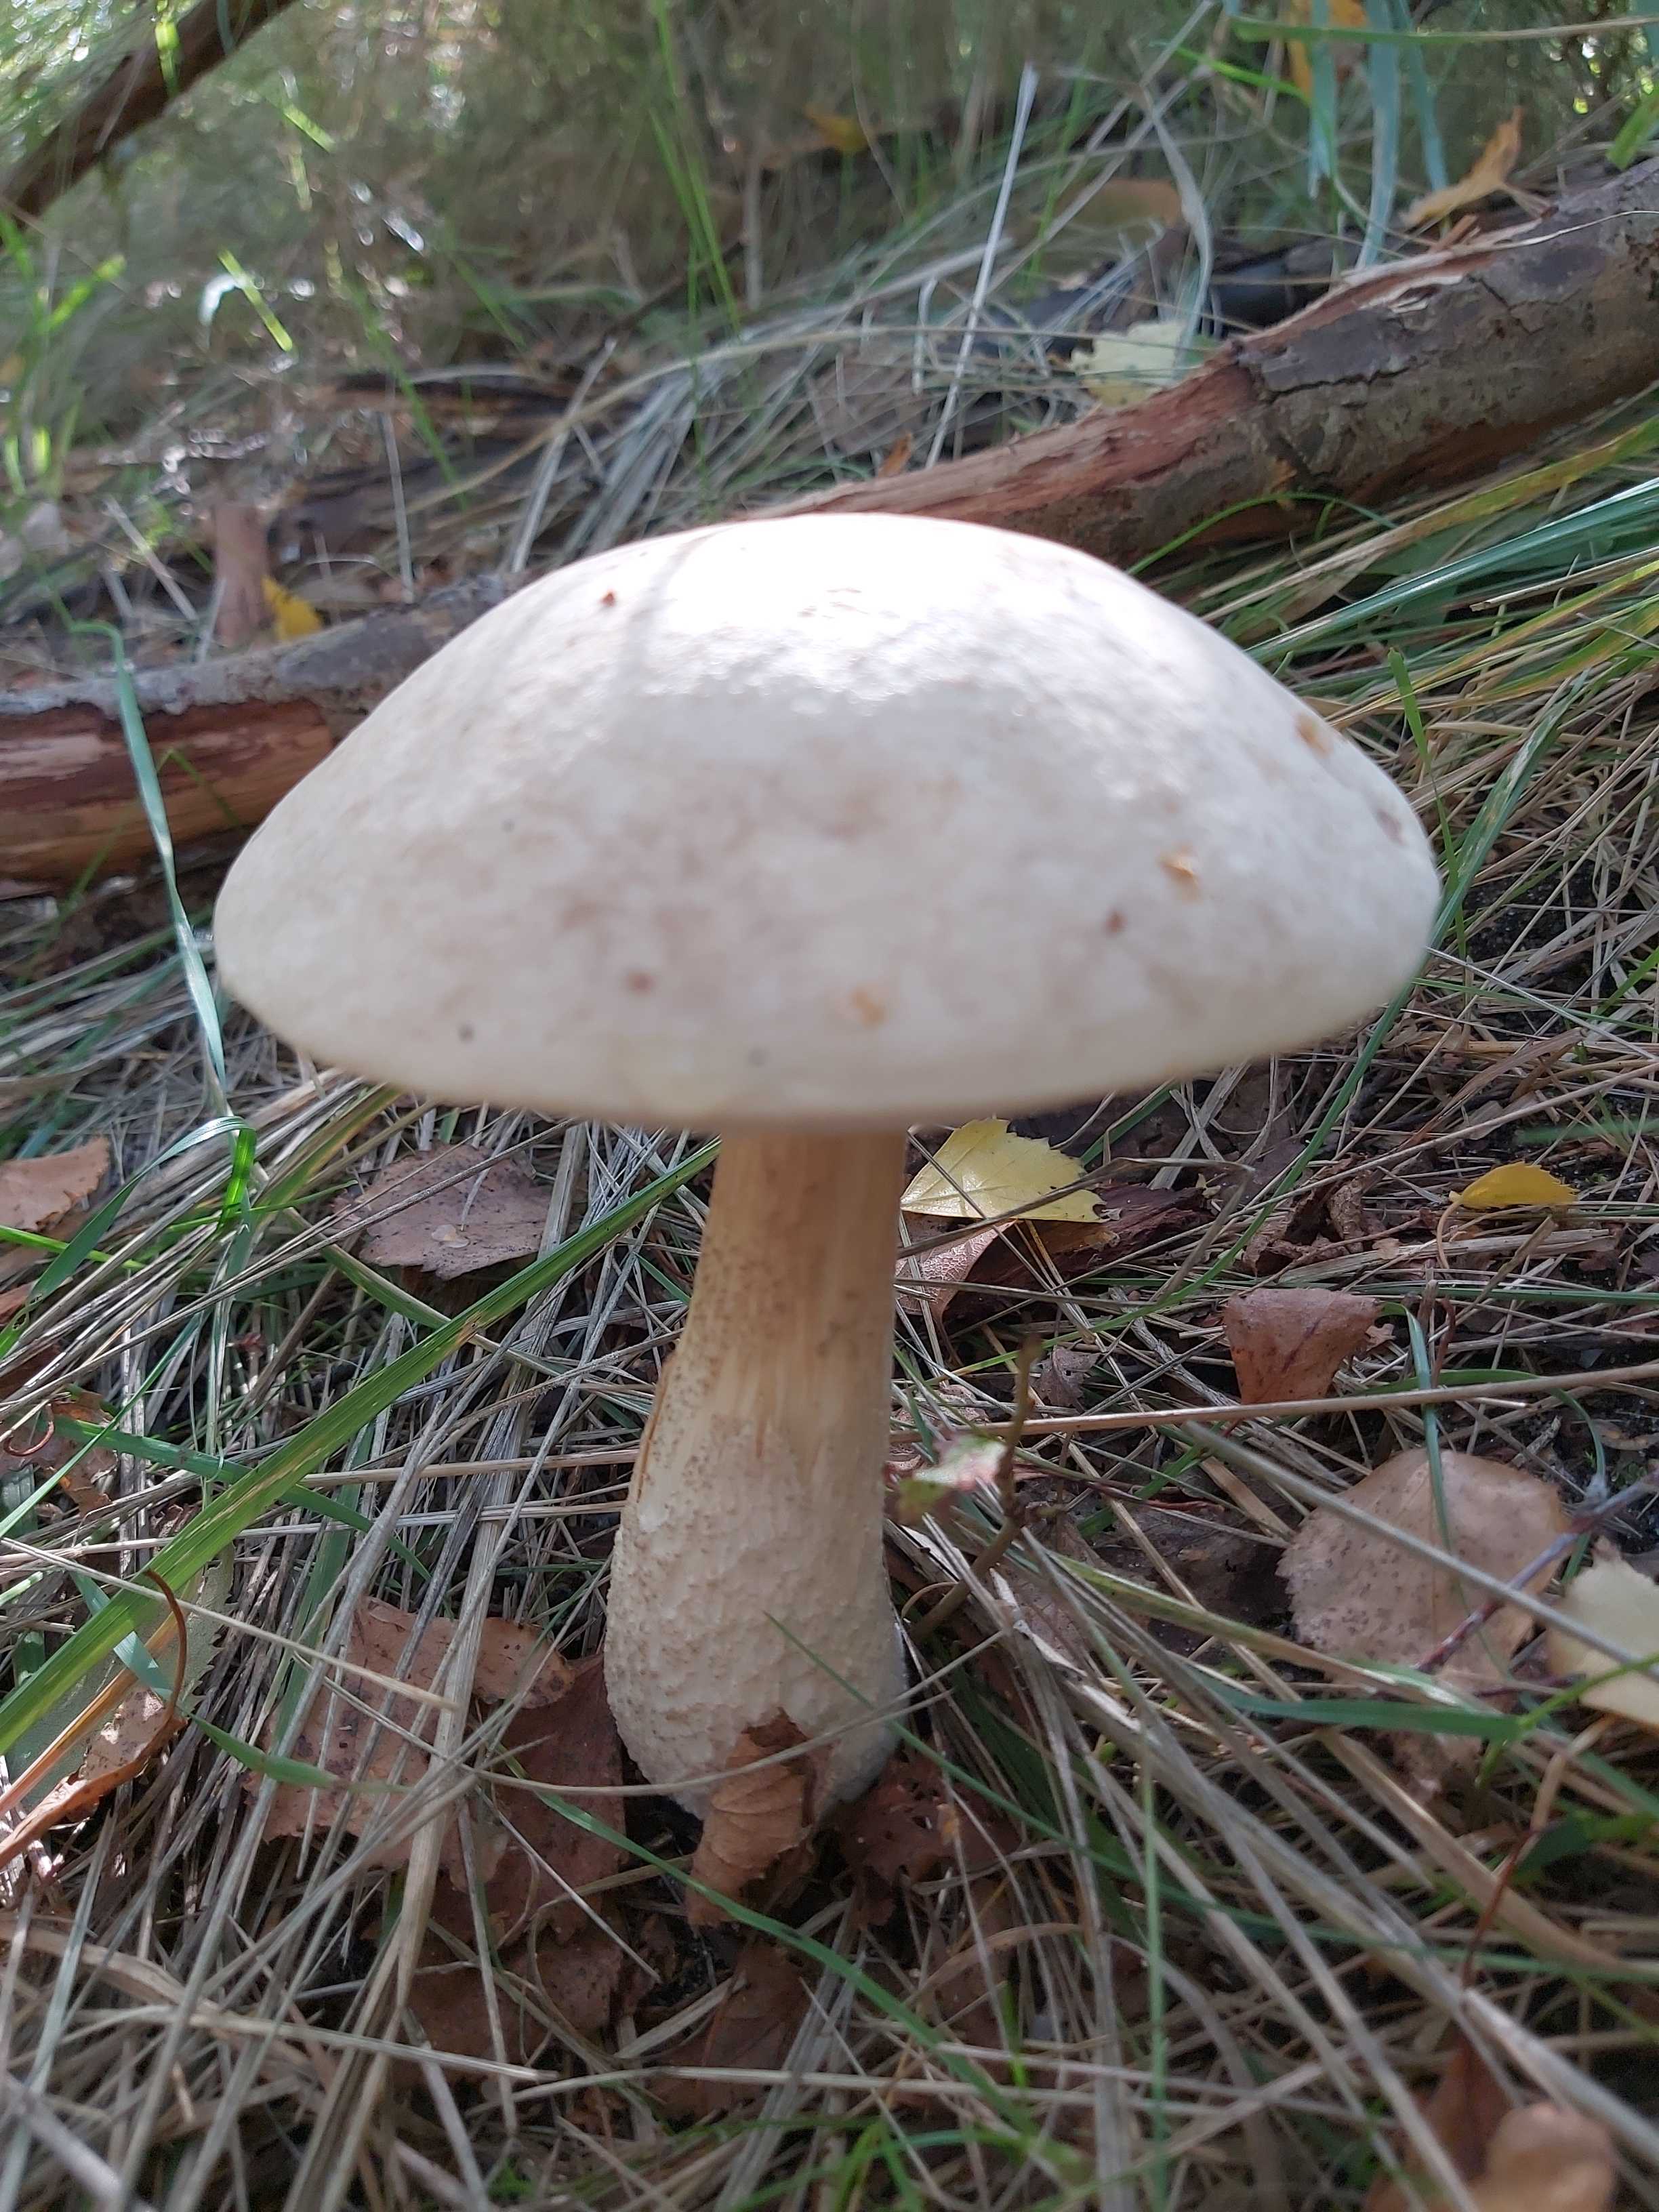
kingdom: Fungi
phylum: Basidiomycota
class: Agaricomycetes
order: Boletales
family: Boletaceae
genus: Leccinum
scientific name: Leccinum scabrum
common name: hvid skælrørhat
